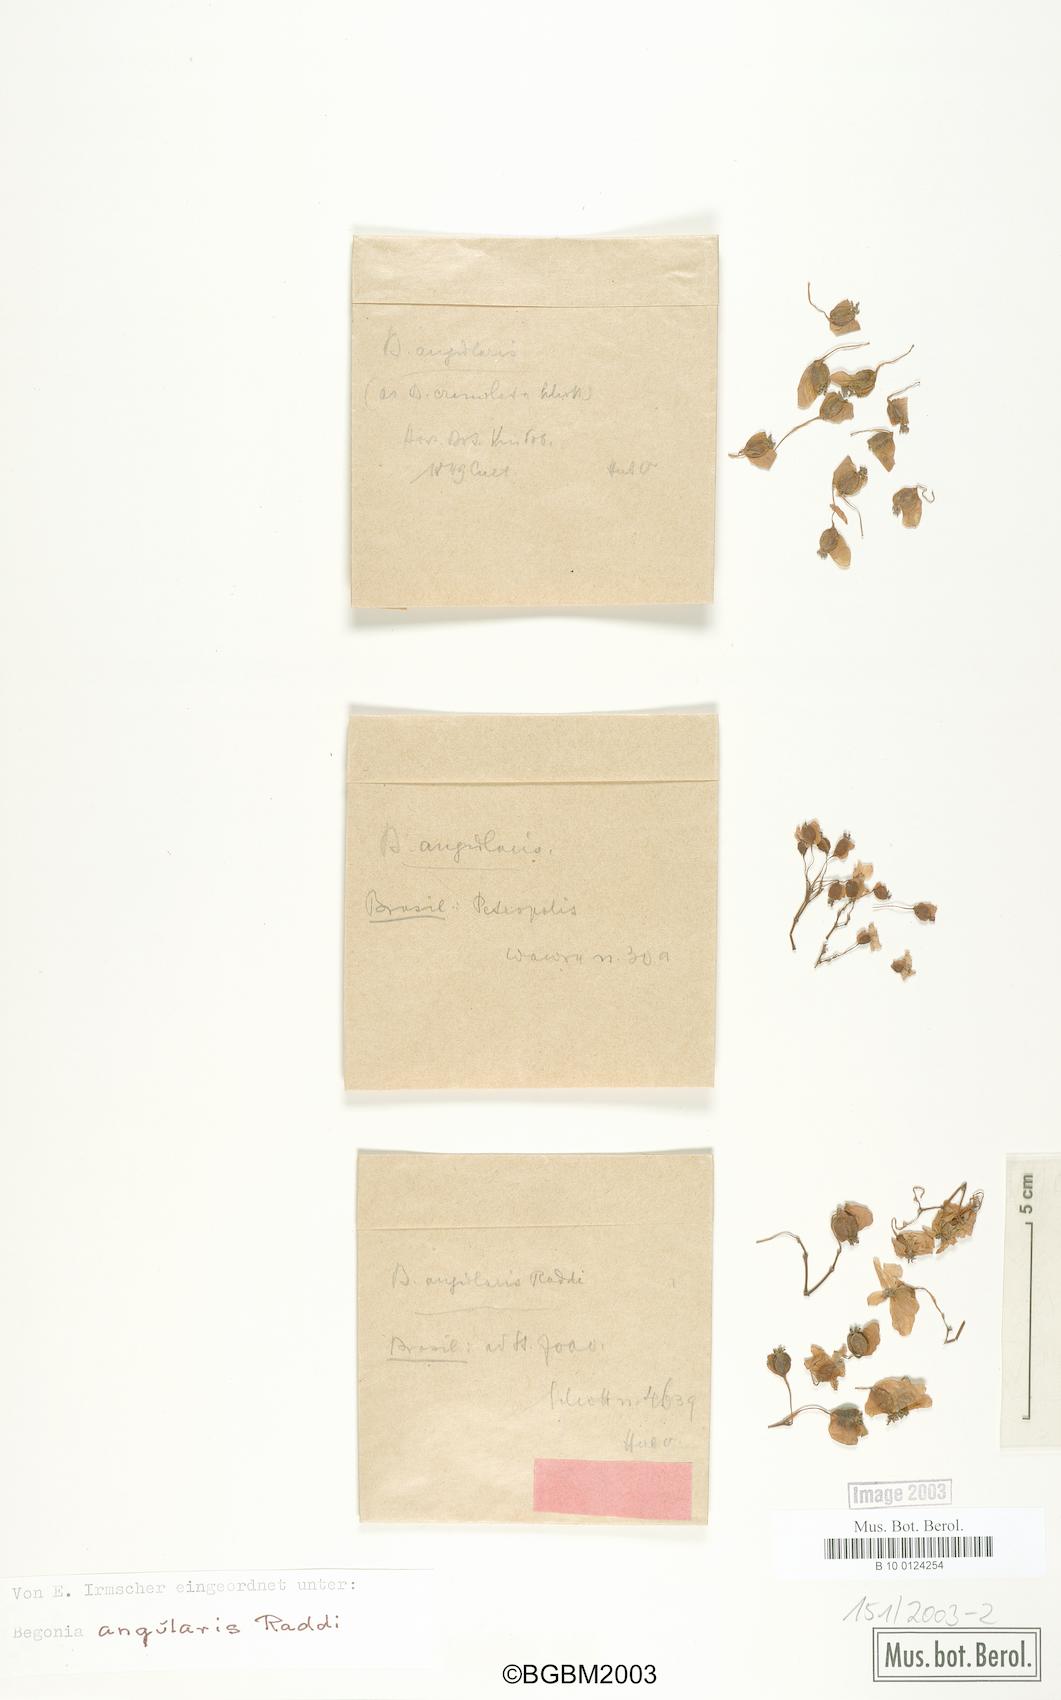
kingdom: Plantae
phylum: Tracheophyta
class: Magnoliopsida
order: Cucurbitales
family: Begoniaceae
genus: Begonia
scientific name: Begonia angularis
